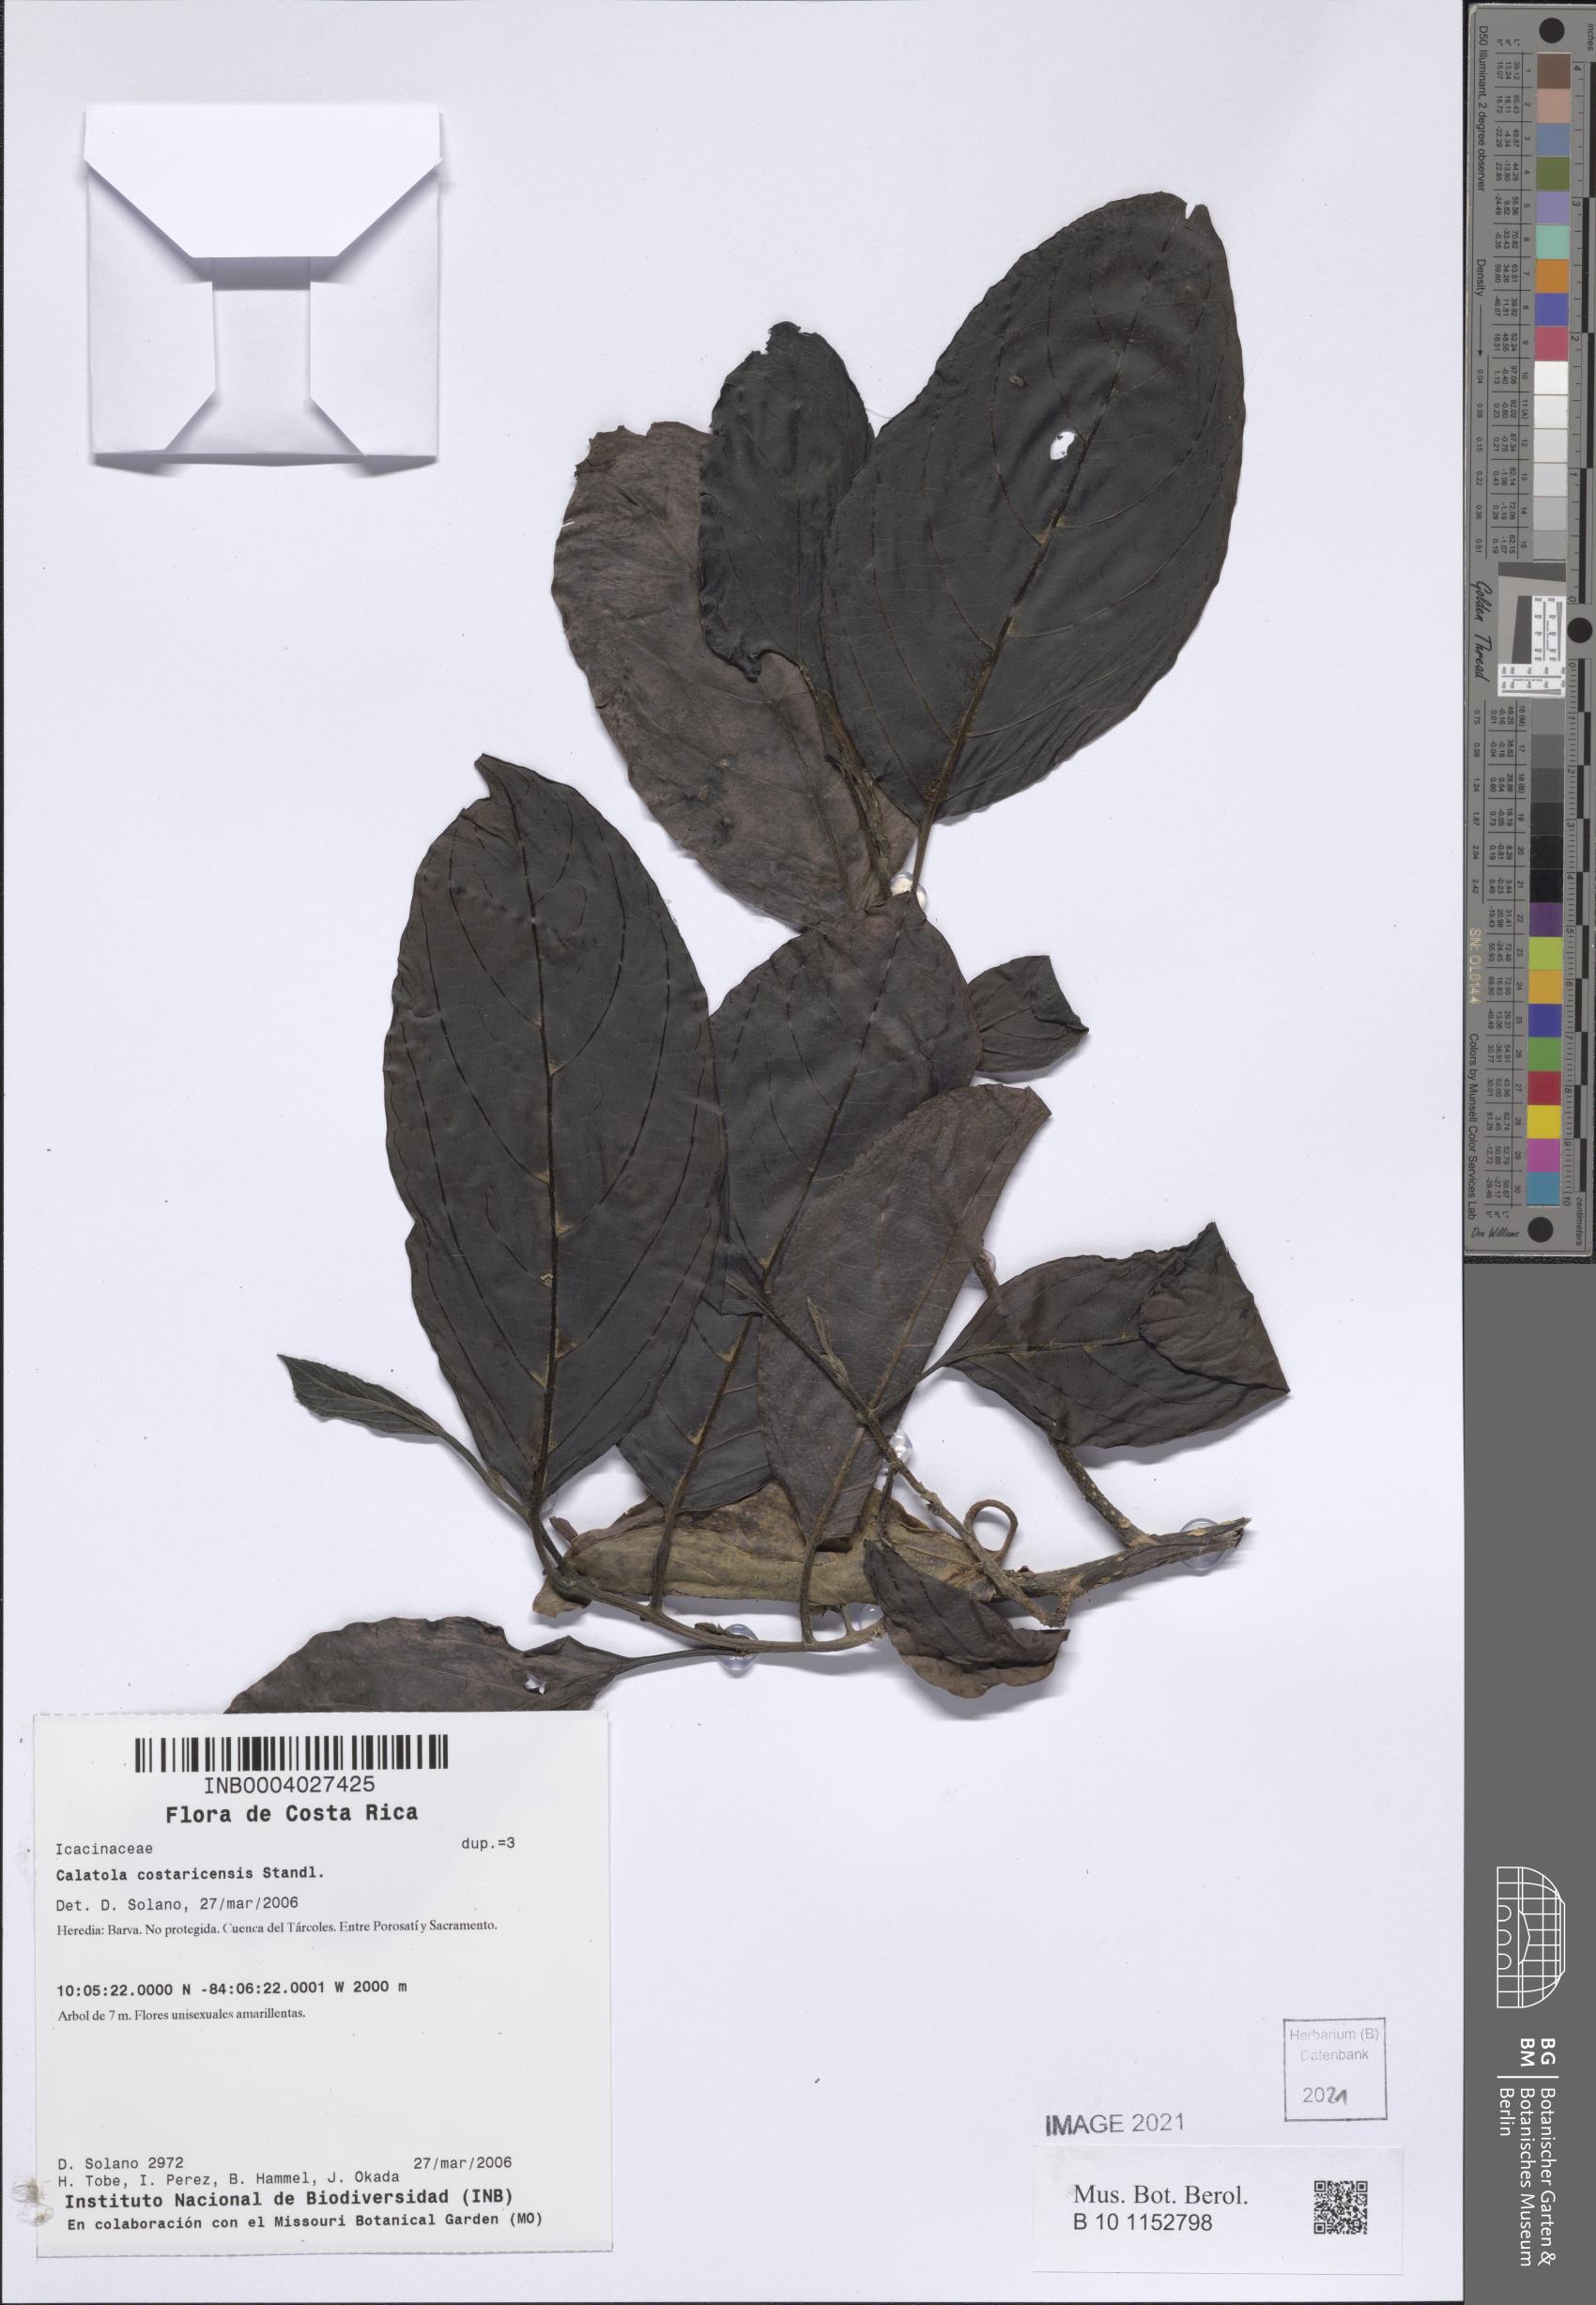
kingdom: Plantae
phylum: Tracheophyta
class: Magnoliopsida
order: Metteniusales
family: Metteniusaceae
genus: Calatola
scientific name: Calatola costaricensis
